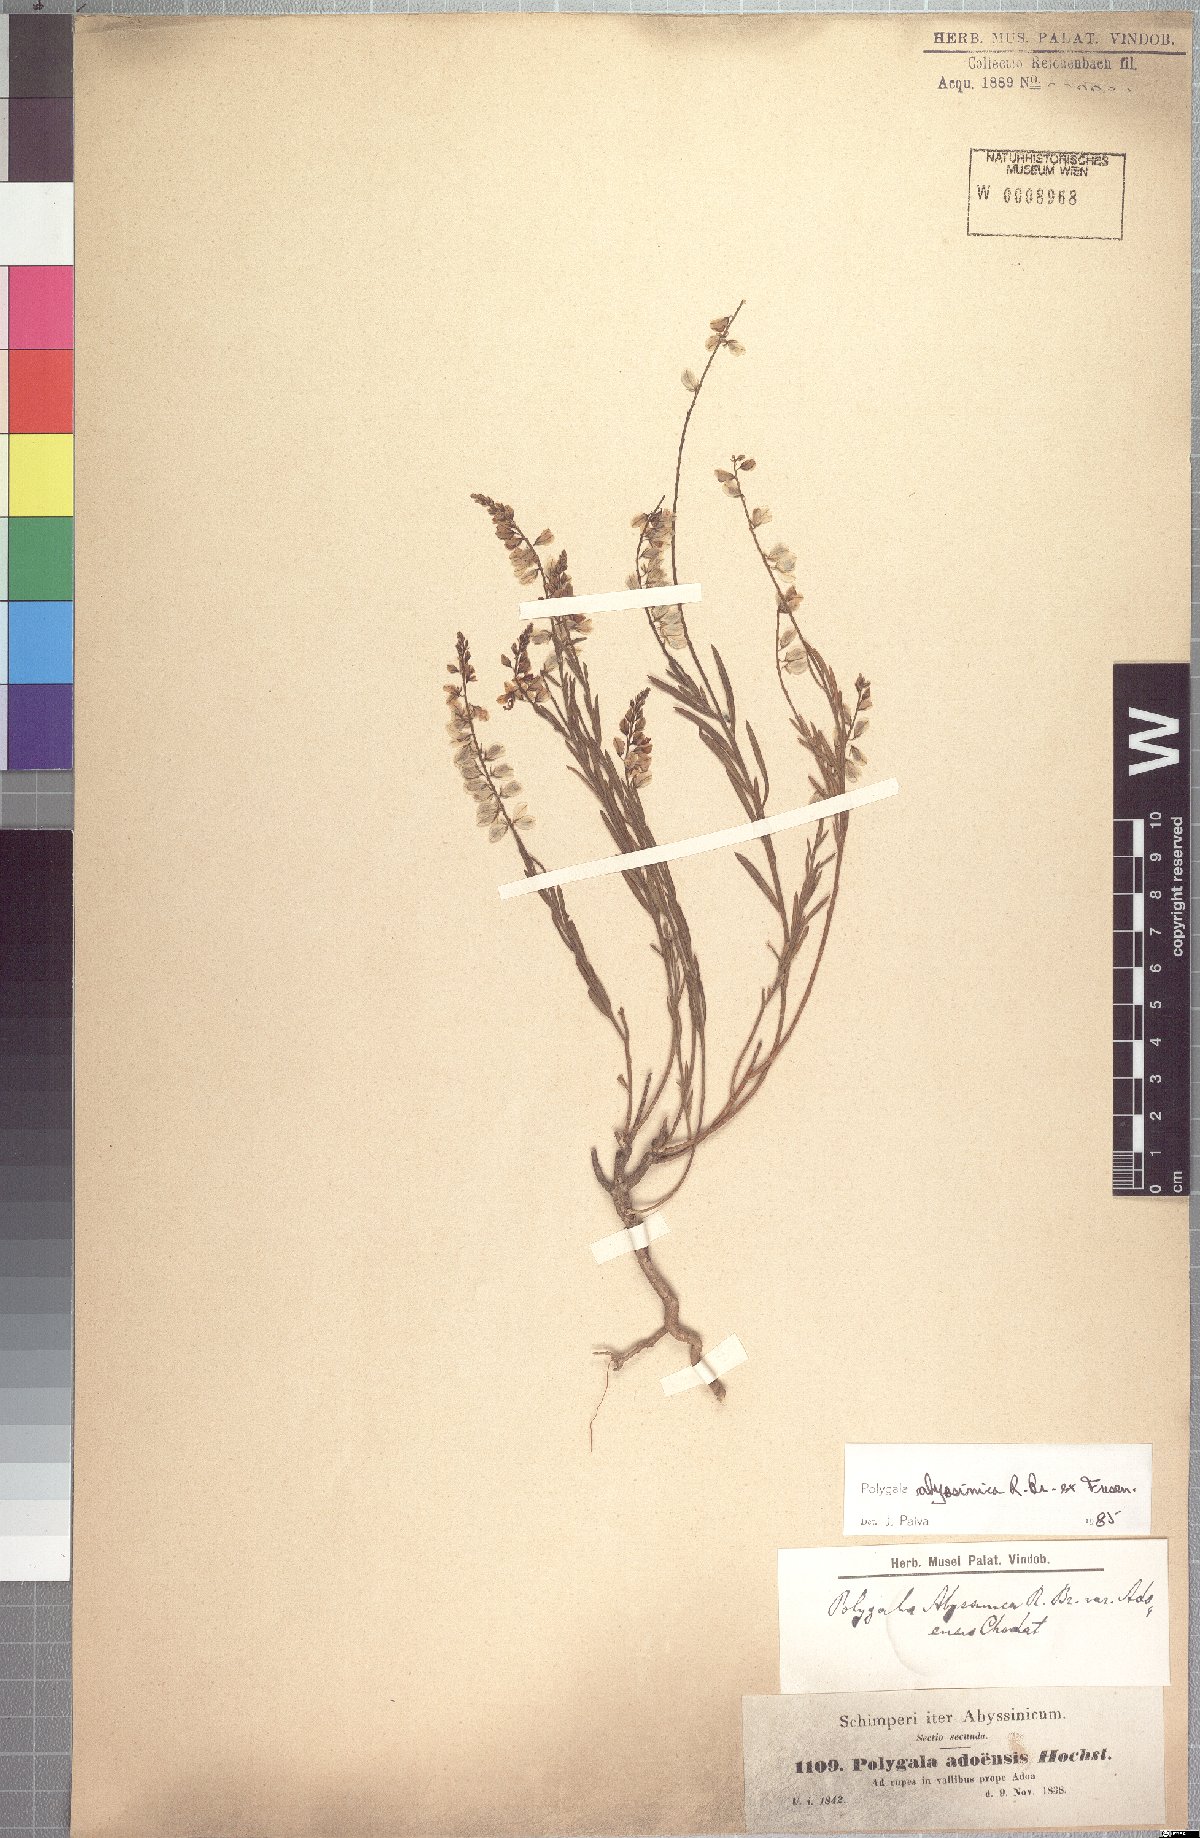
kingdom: Plantae
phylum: Tracheophyta
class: Magnoliopsida
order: Fabales
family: Polygalaceae
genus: Polygala
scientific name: Polygala rupicola
